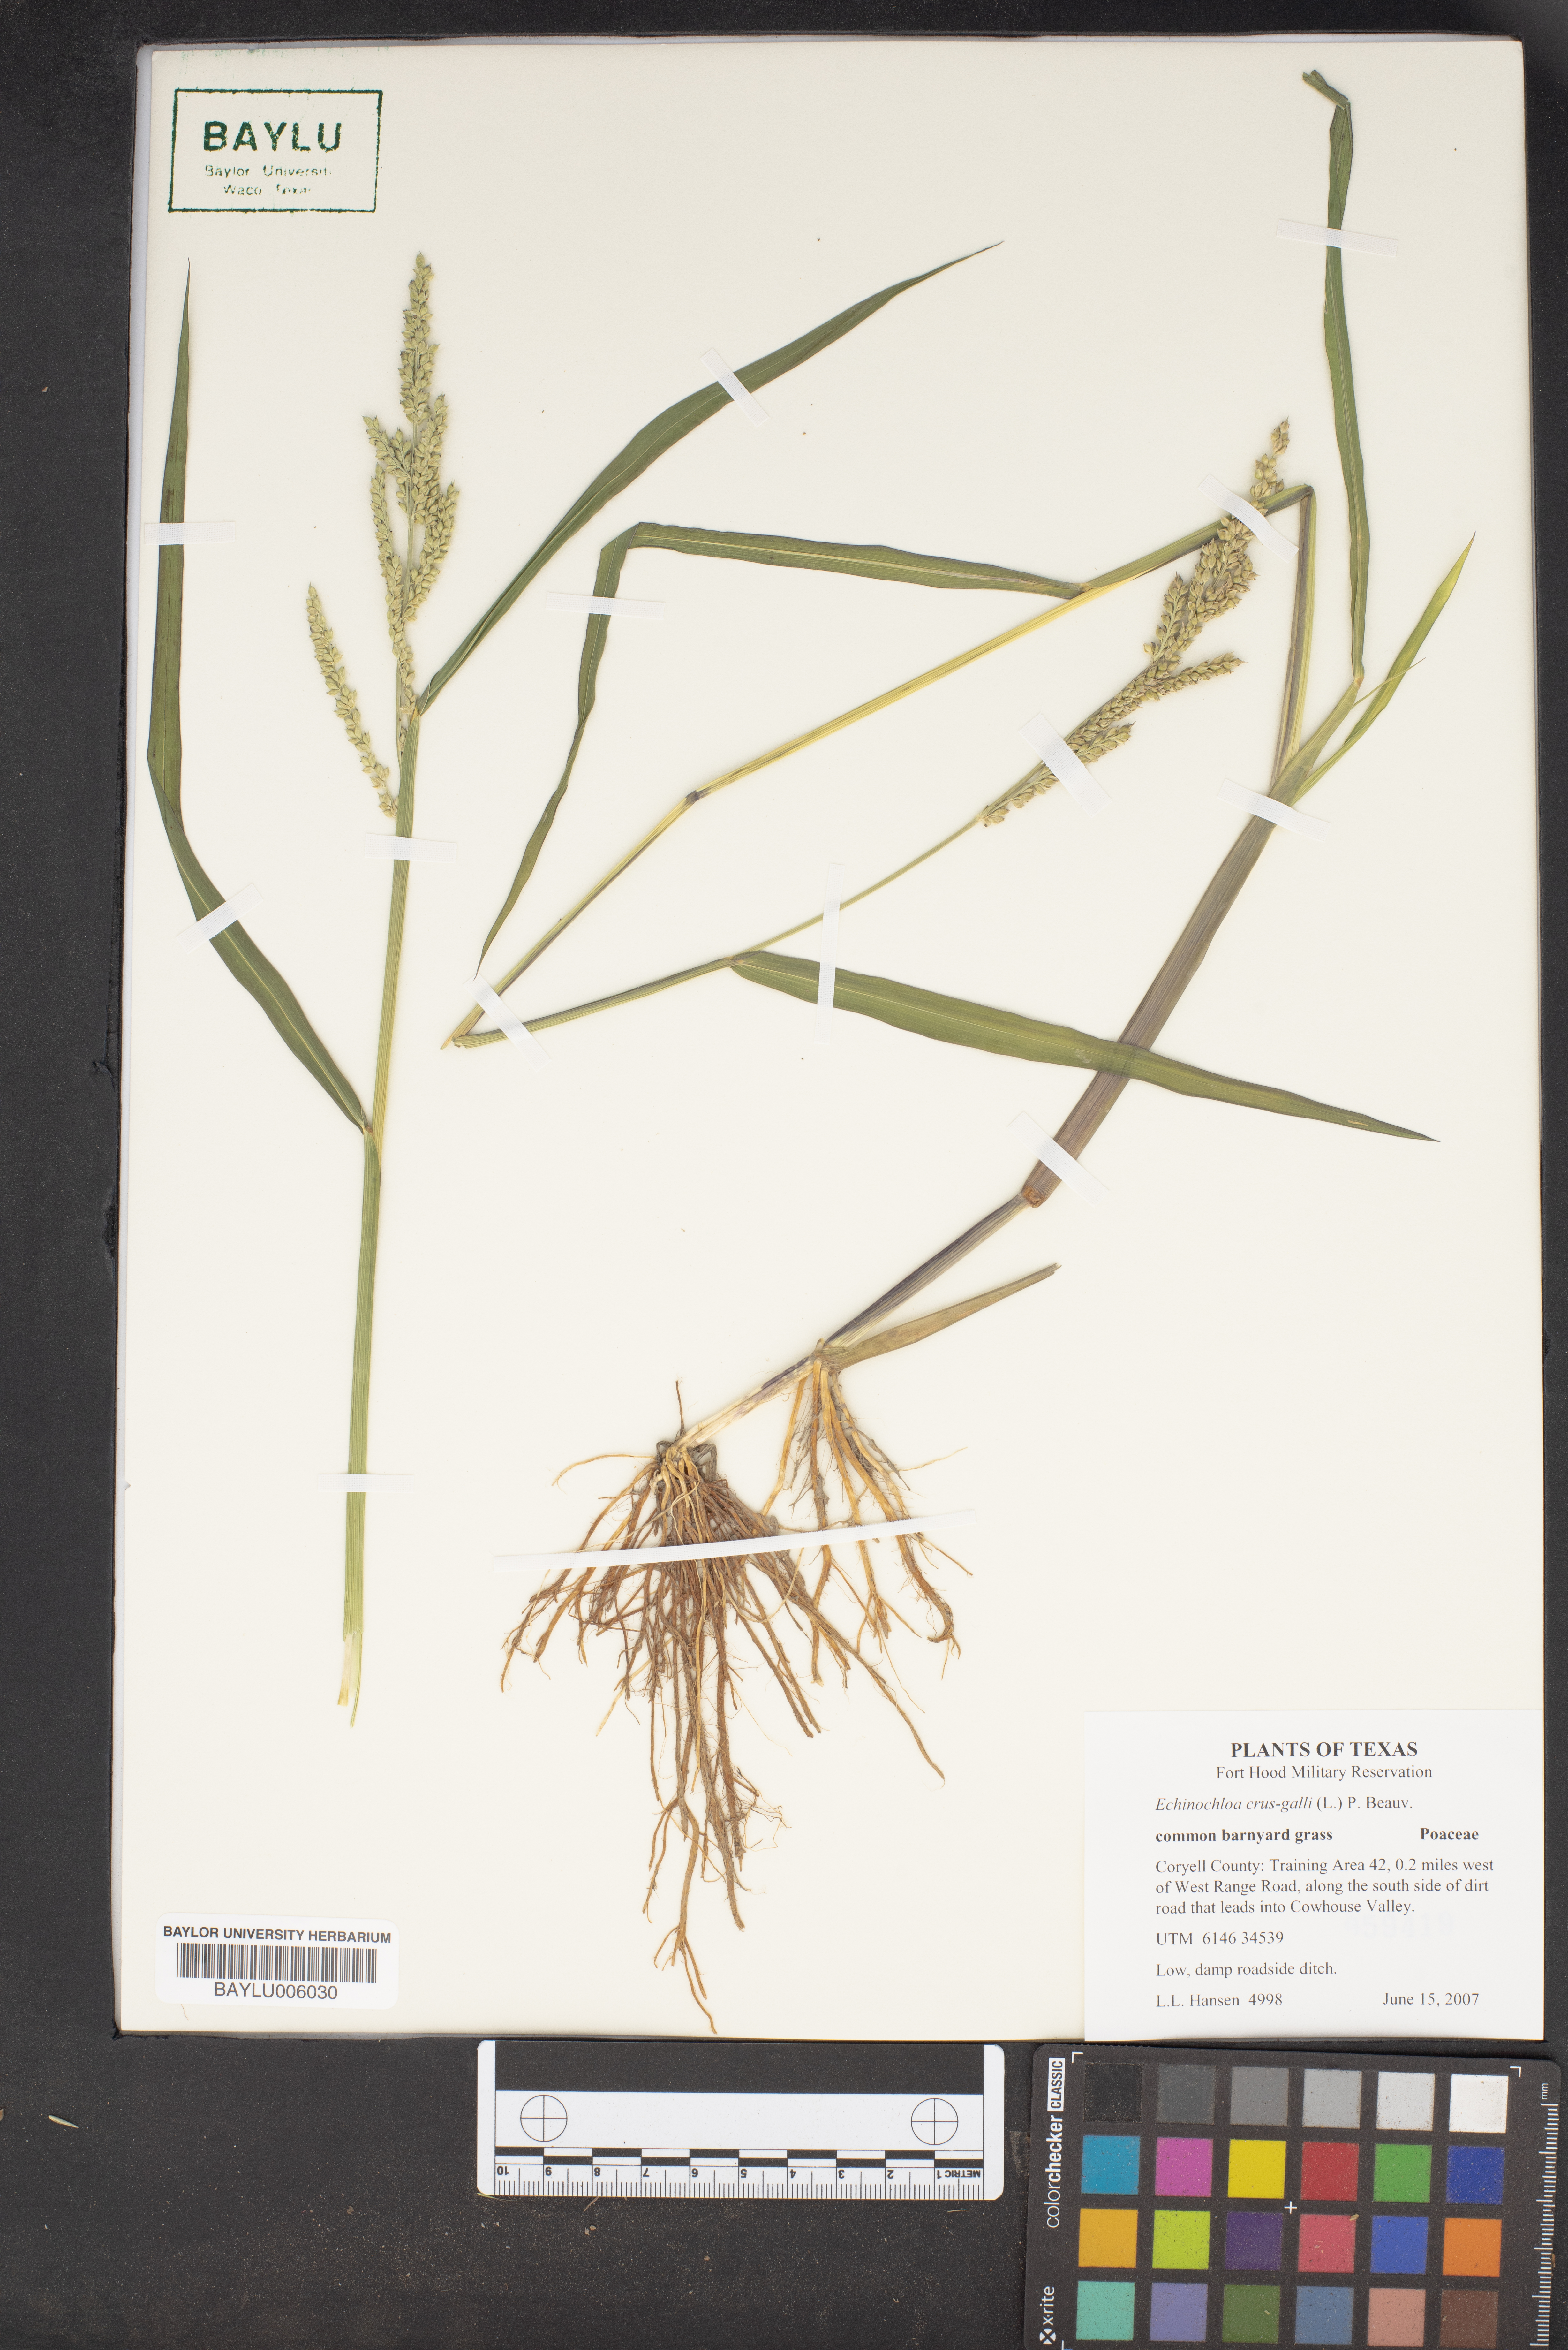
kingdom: Plantae
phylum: Tracheophyta
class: Liliopsida
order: Poales
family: Poaceae
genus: Echinochloa
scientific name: Echinochloa crus-galli
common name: Cockspur
